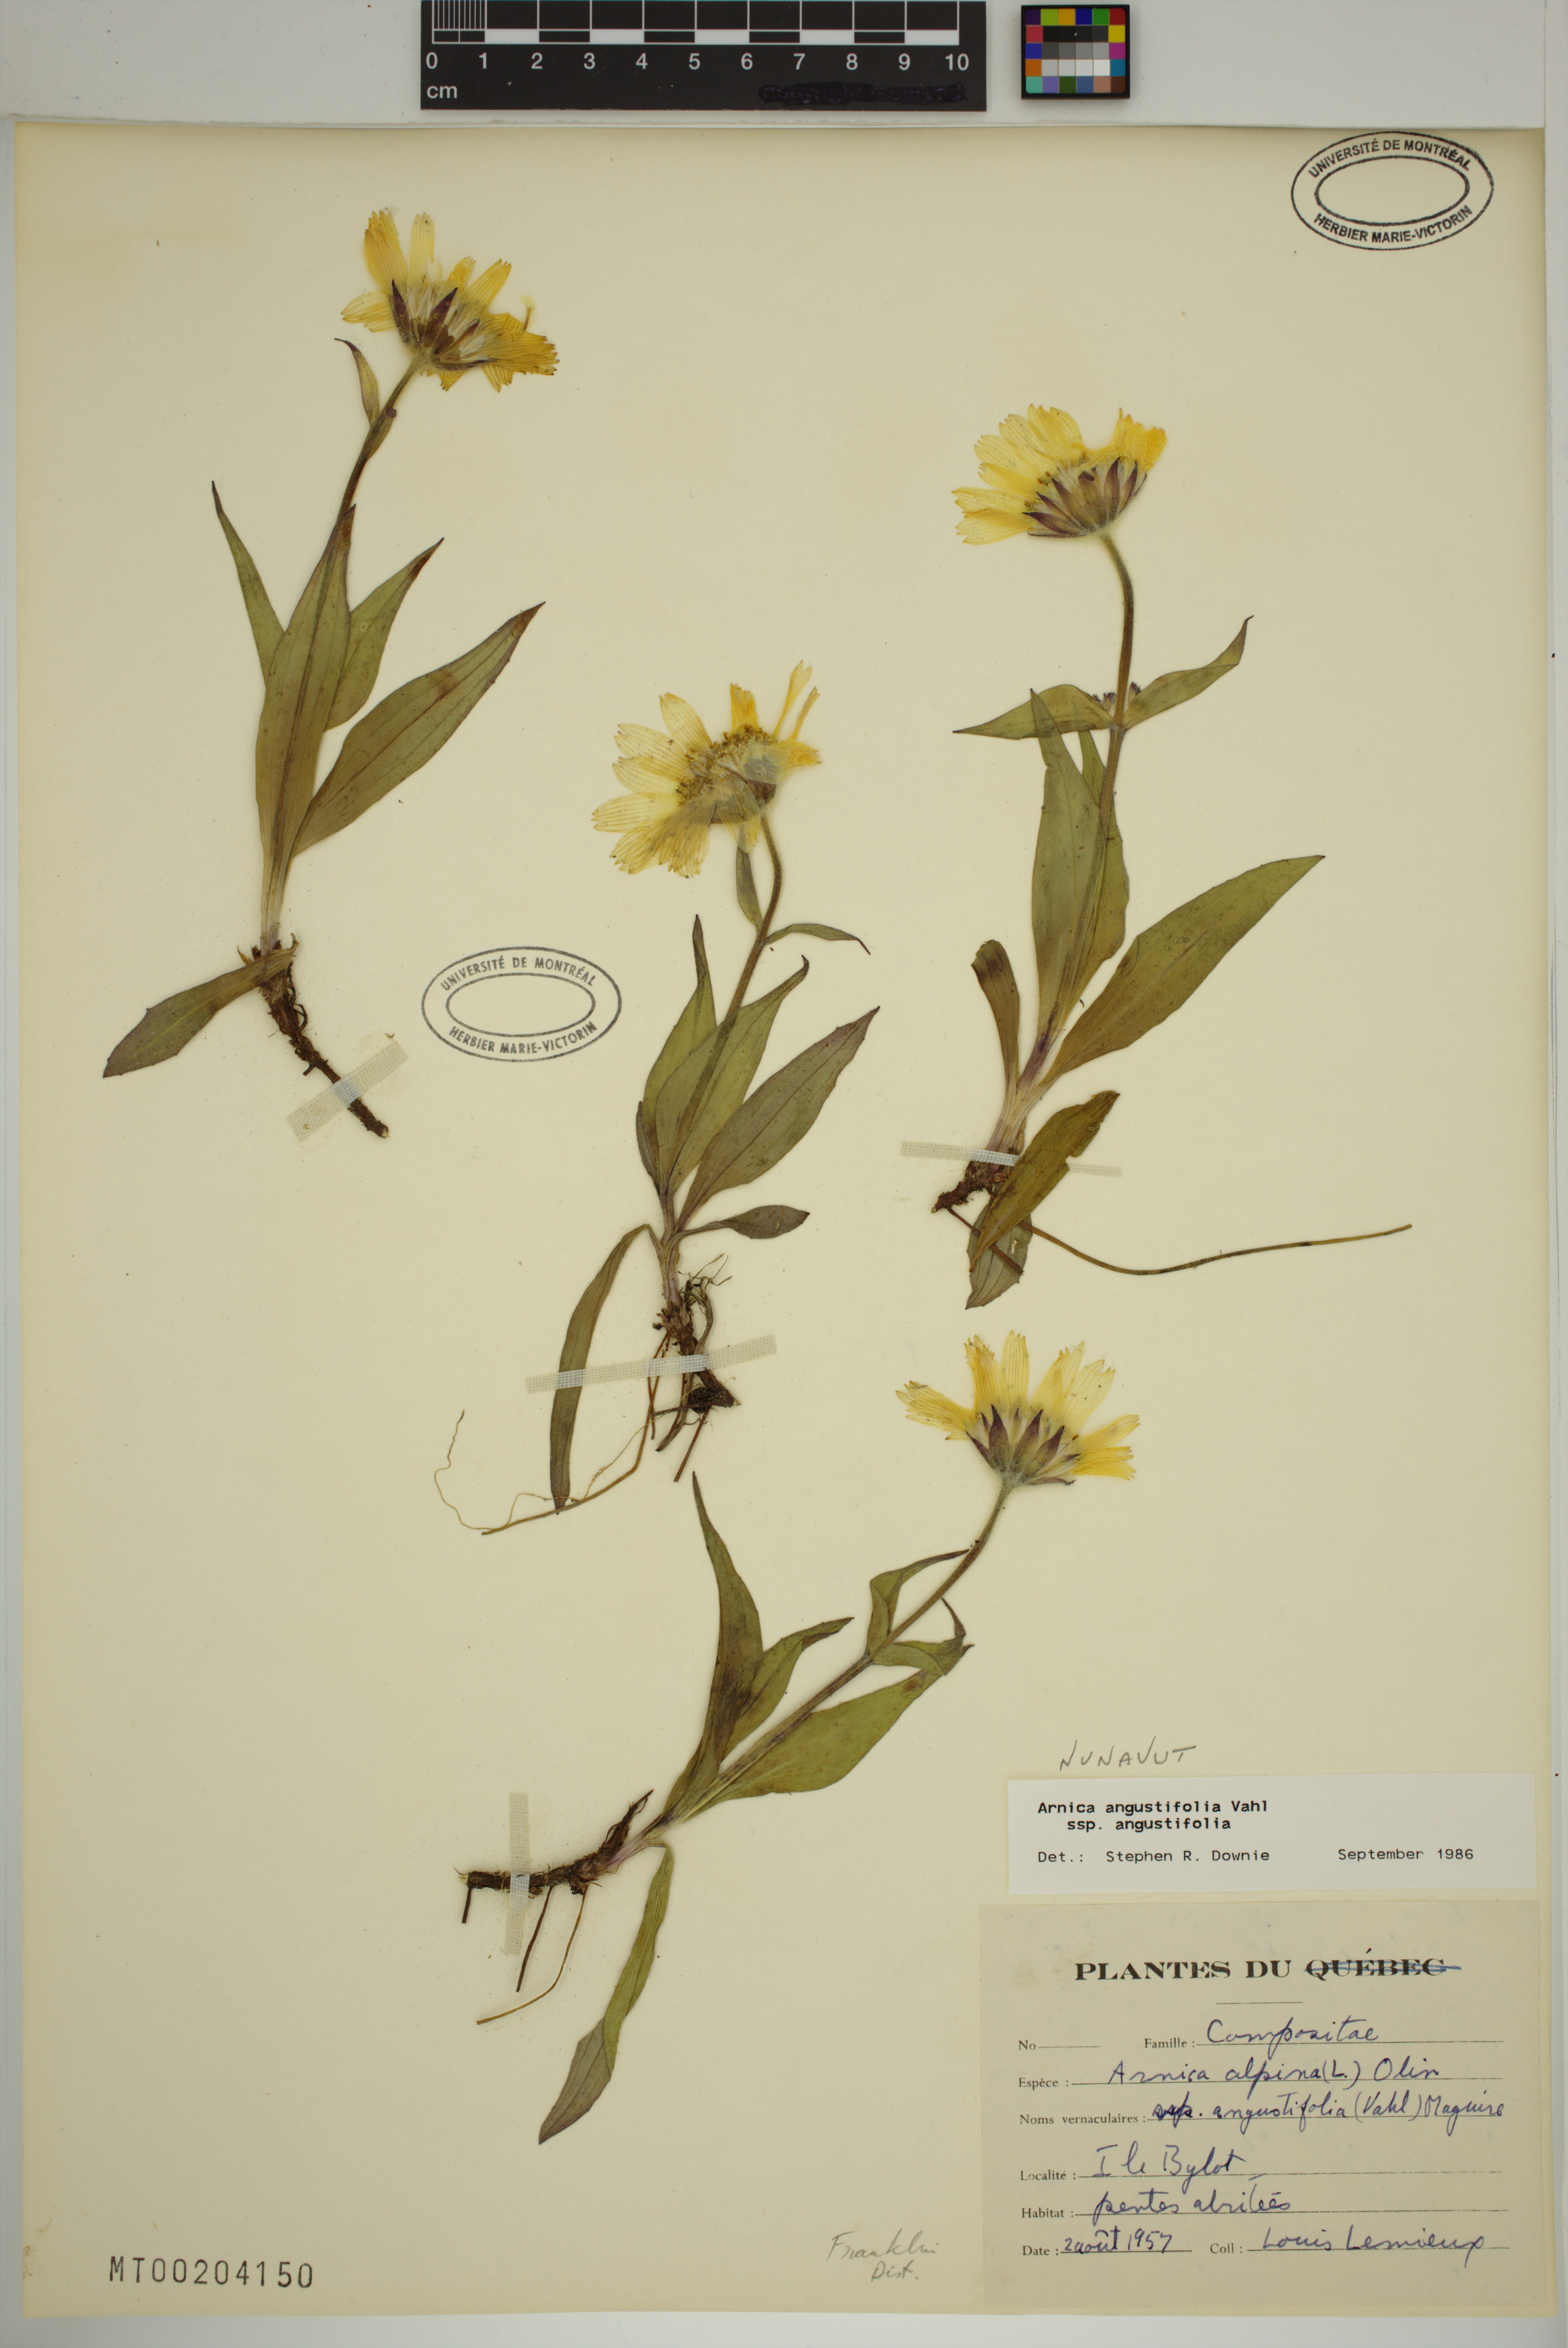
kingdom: Plantae
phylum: Tracheophyta
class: Magnoliopsida
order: Asterales
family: Asteraceae
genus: Arnica
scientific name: Arnica angustifolia
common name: Arctic arnica
